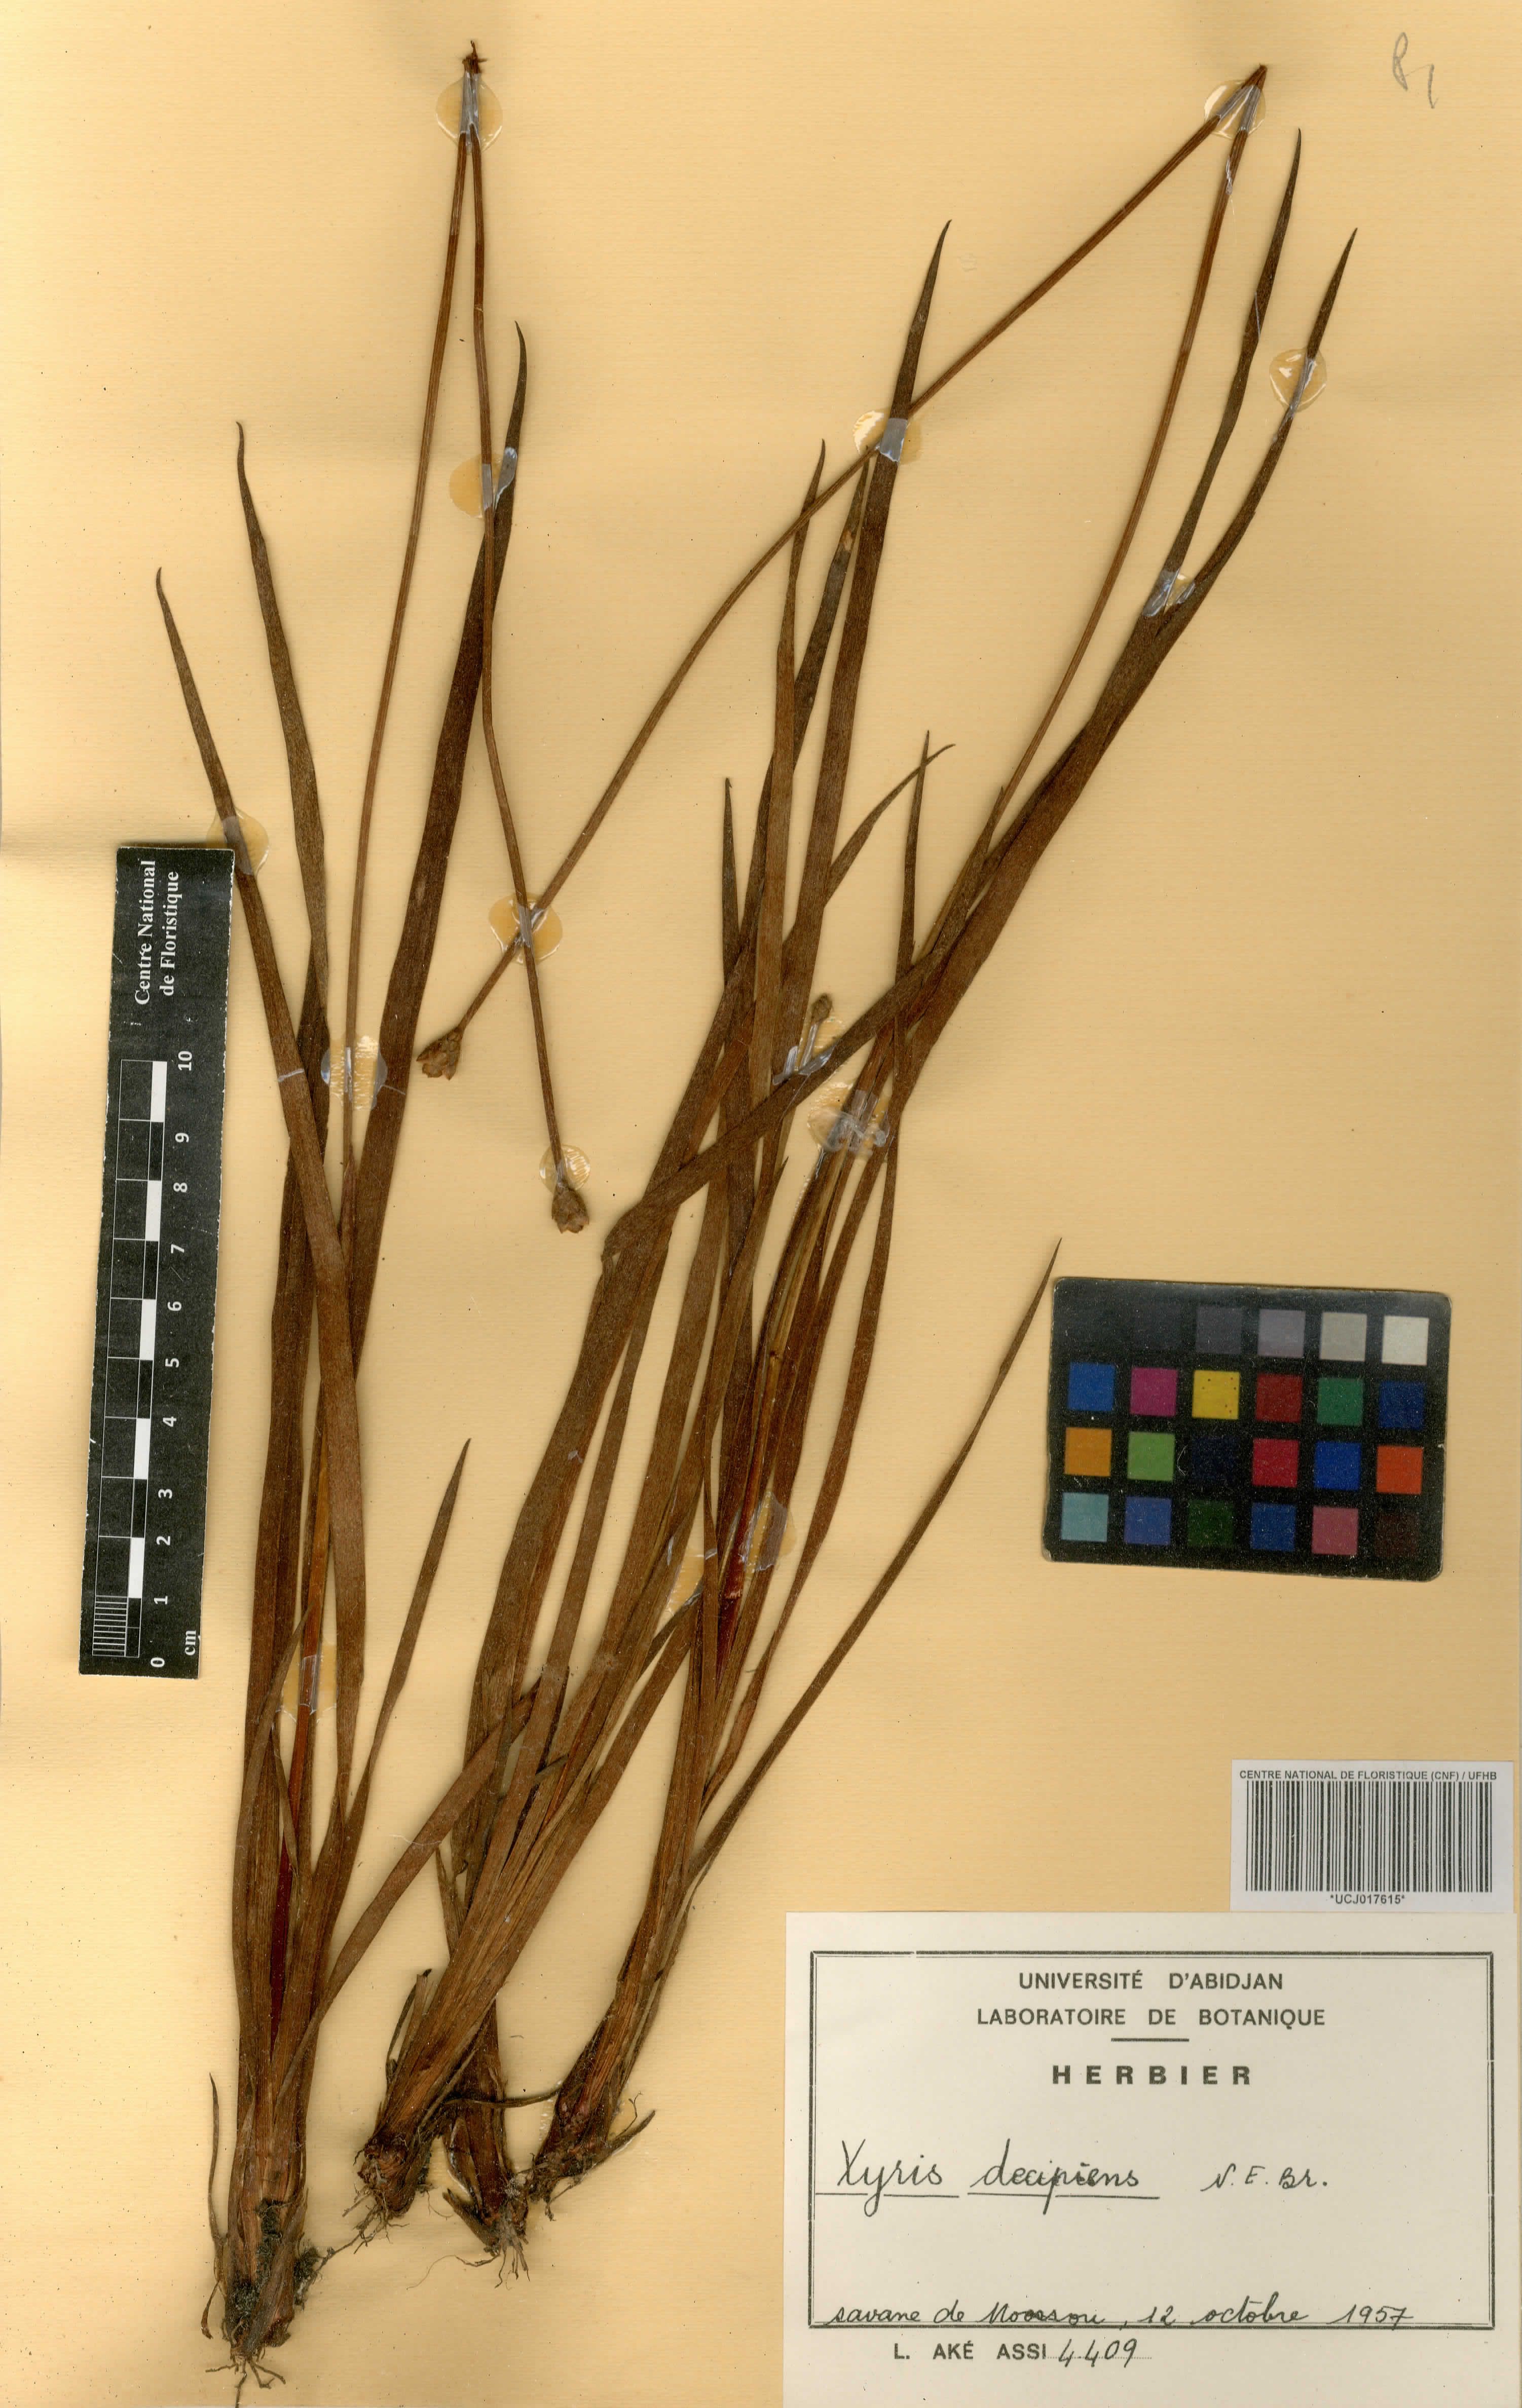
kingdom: Plantae
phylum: Tracheophyta
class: Liliopsida
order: Poales
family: Xyridaceae
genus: Xyris
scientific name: Xyris decipiens
